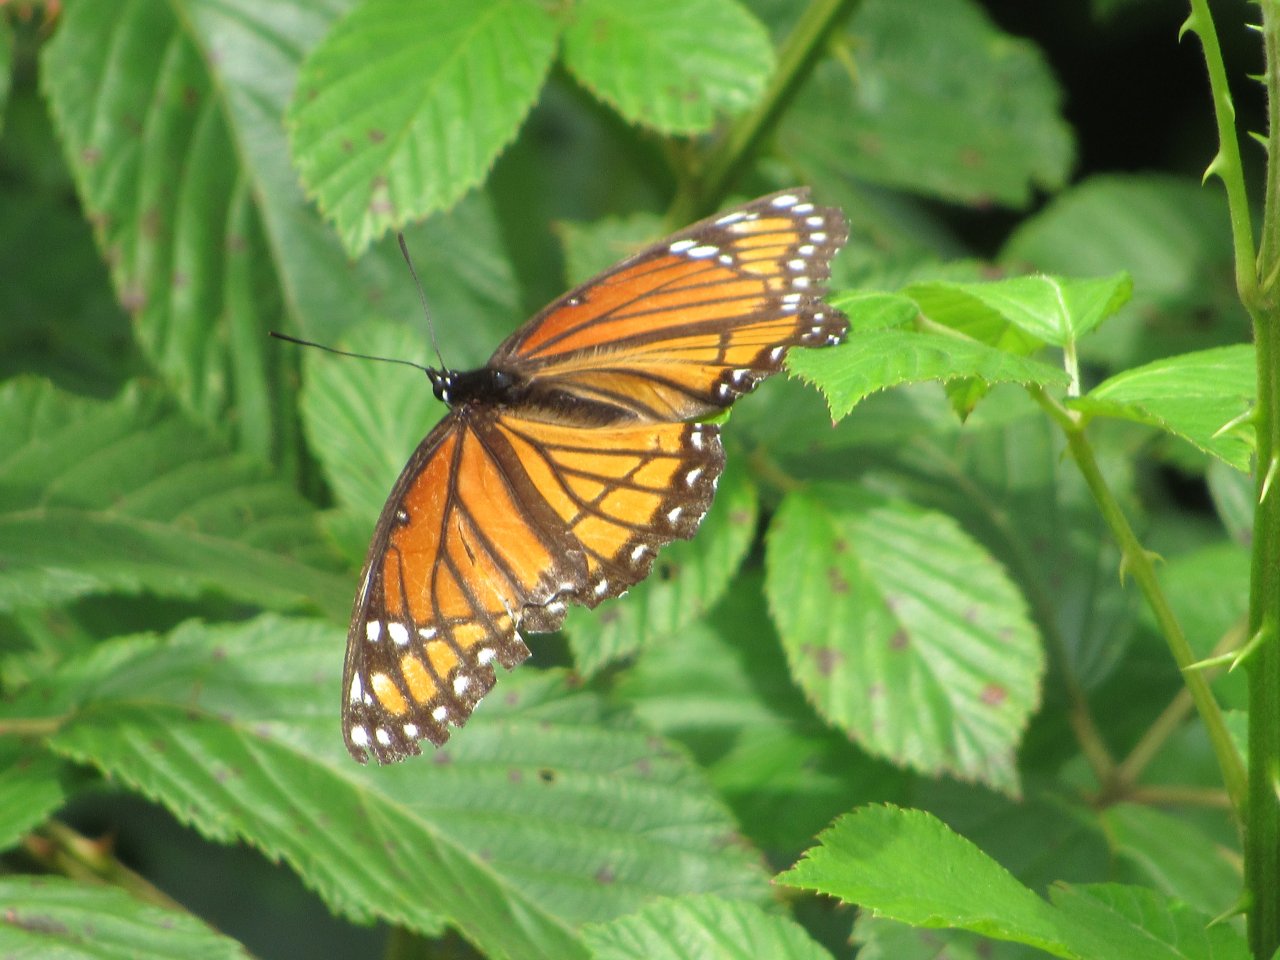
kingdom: Animalia
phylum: Arthropoda
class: Insecta
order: Lepidoptera
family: Nymphalidae
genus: Limenitis
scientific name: Limenitis archippus
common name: Viceroy
